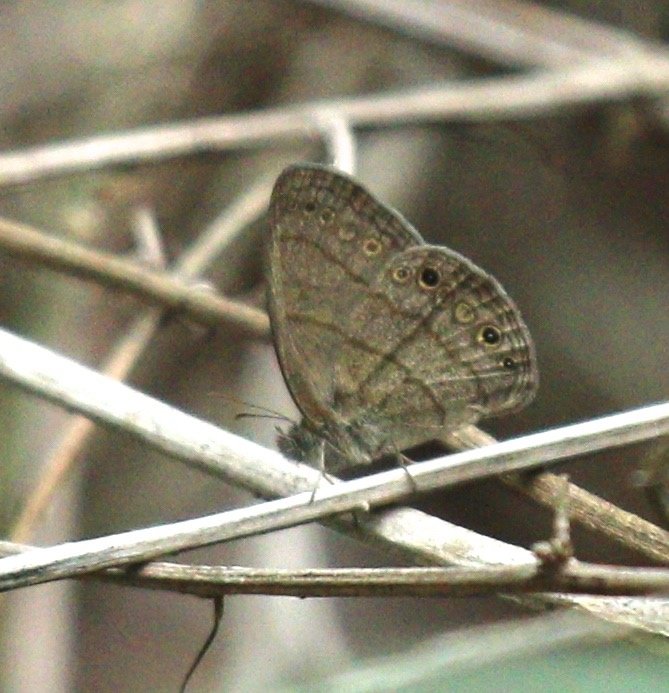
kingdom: Animalia
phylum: Arthropoda
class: Insecta
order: Lepidoptera
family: Nymphalidae
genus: Hermeuptychia
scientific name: Hermeuptychia hermybius
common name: South Texas Satyr
